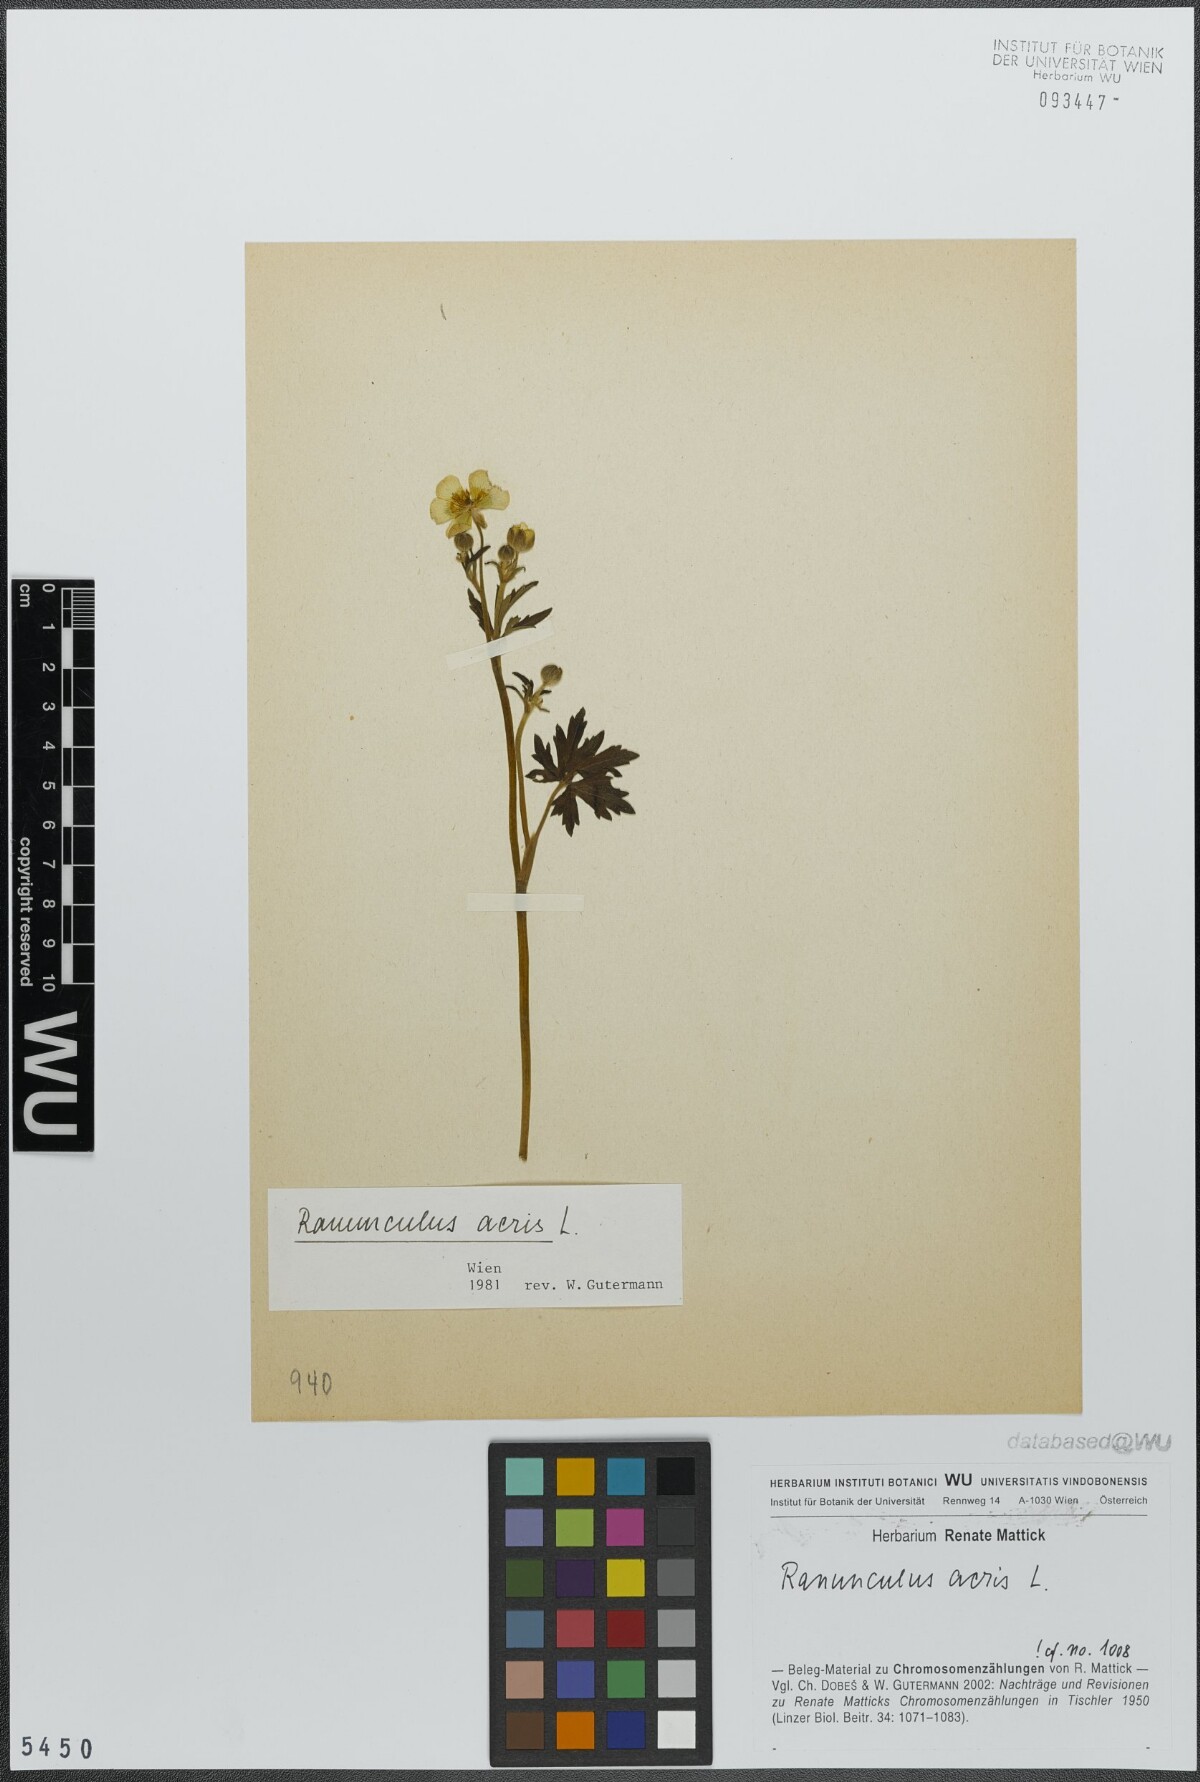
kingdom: Plantae
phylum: Tracheophyta
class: Magnoliopsida
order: Ranunculales
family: Ranunculaceae
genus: Ranunculus
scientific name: Ranunculus acris
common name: Meadow buttercup
